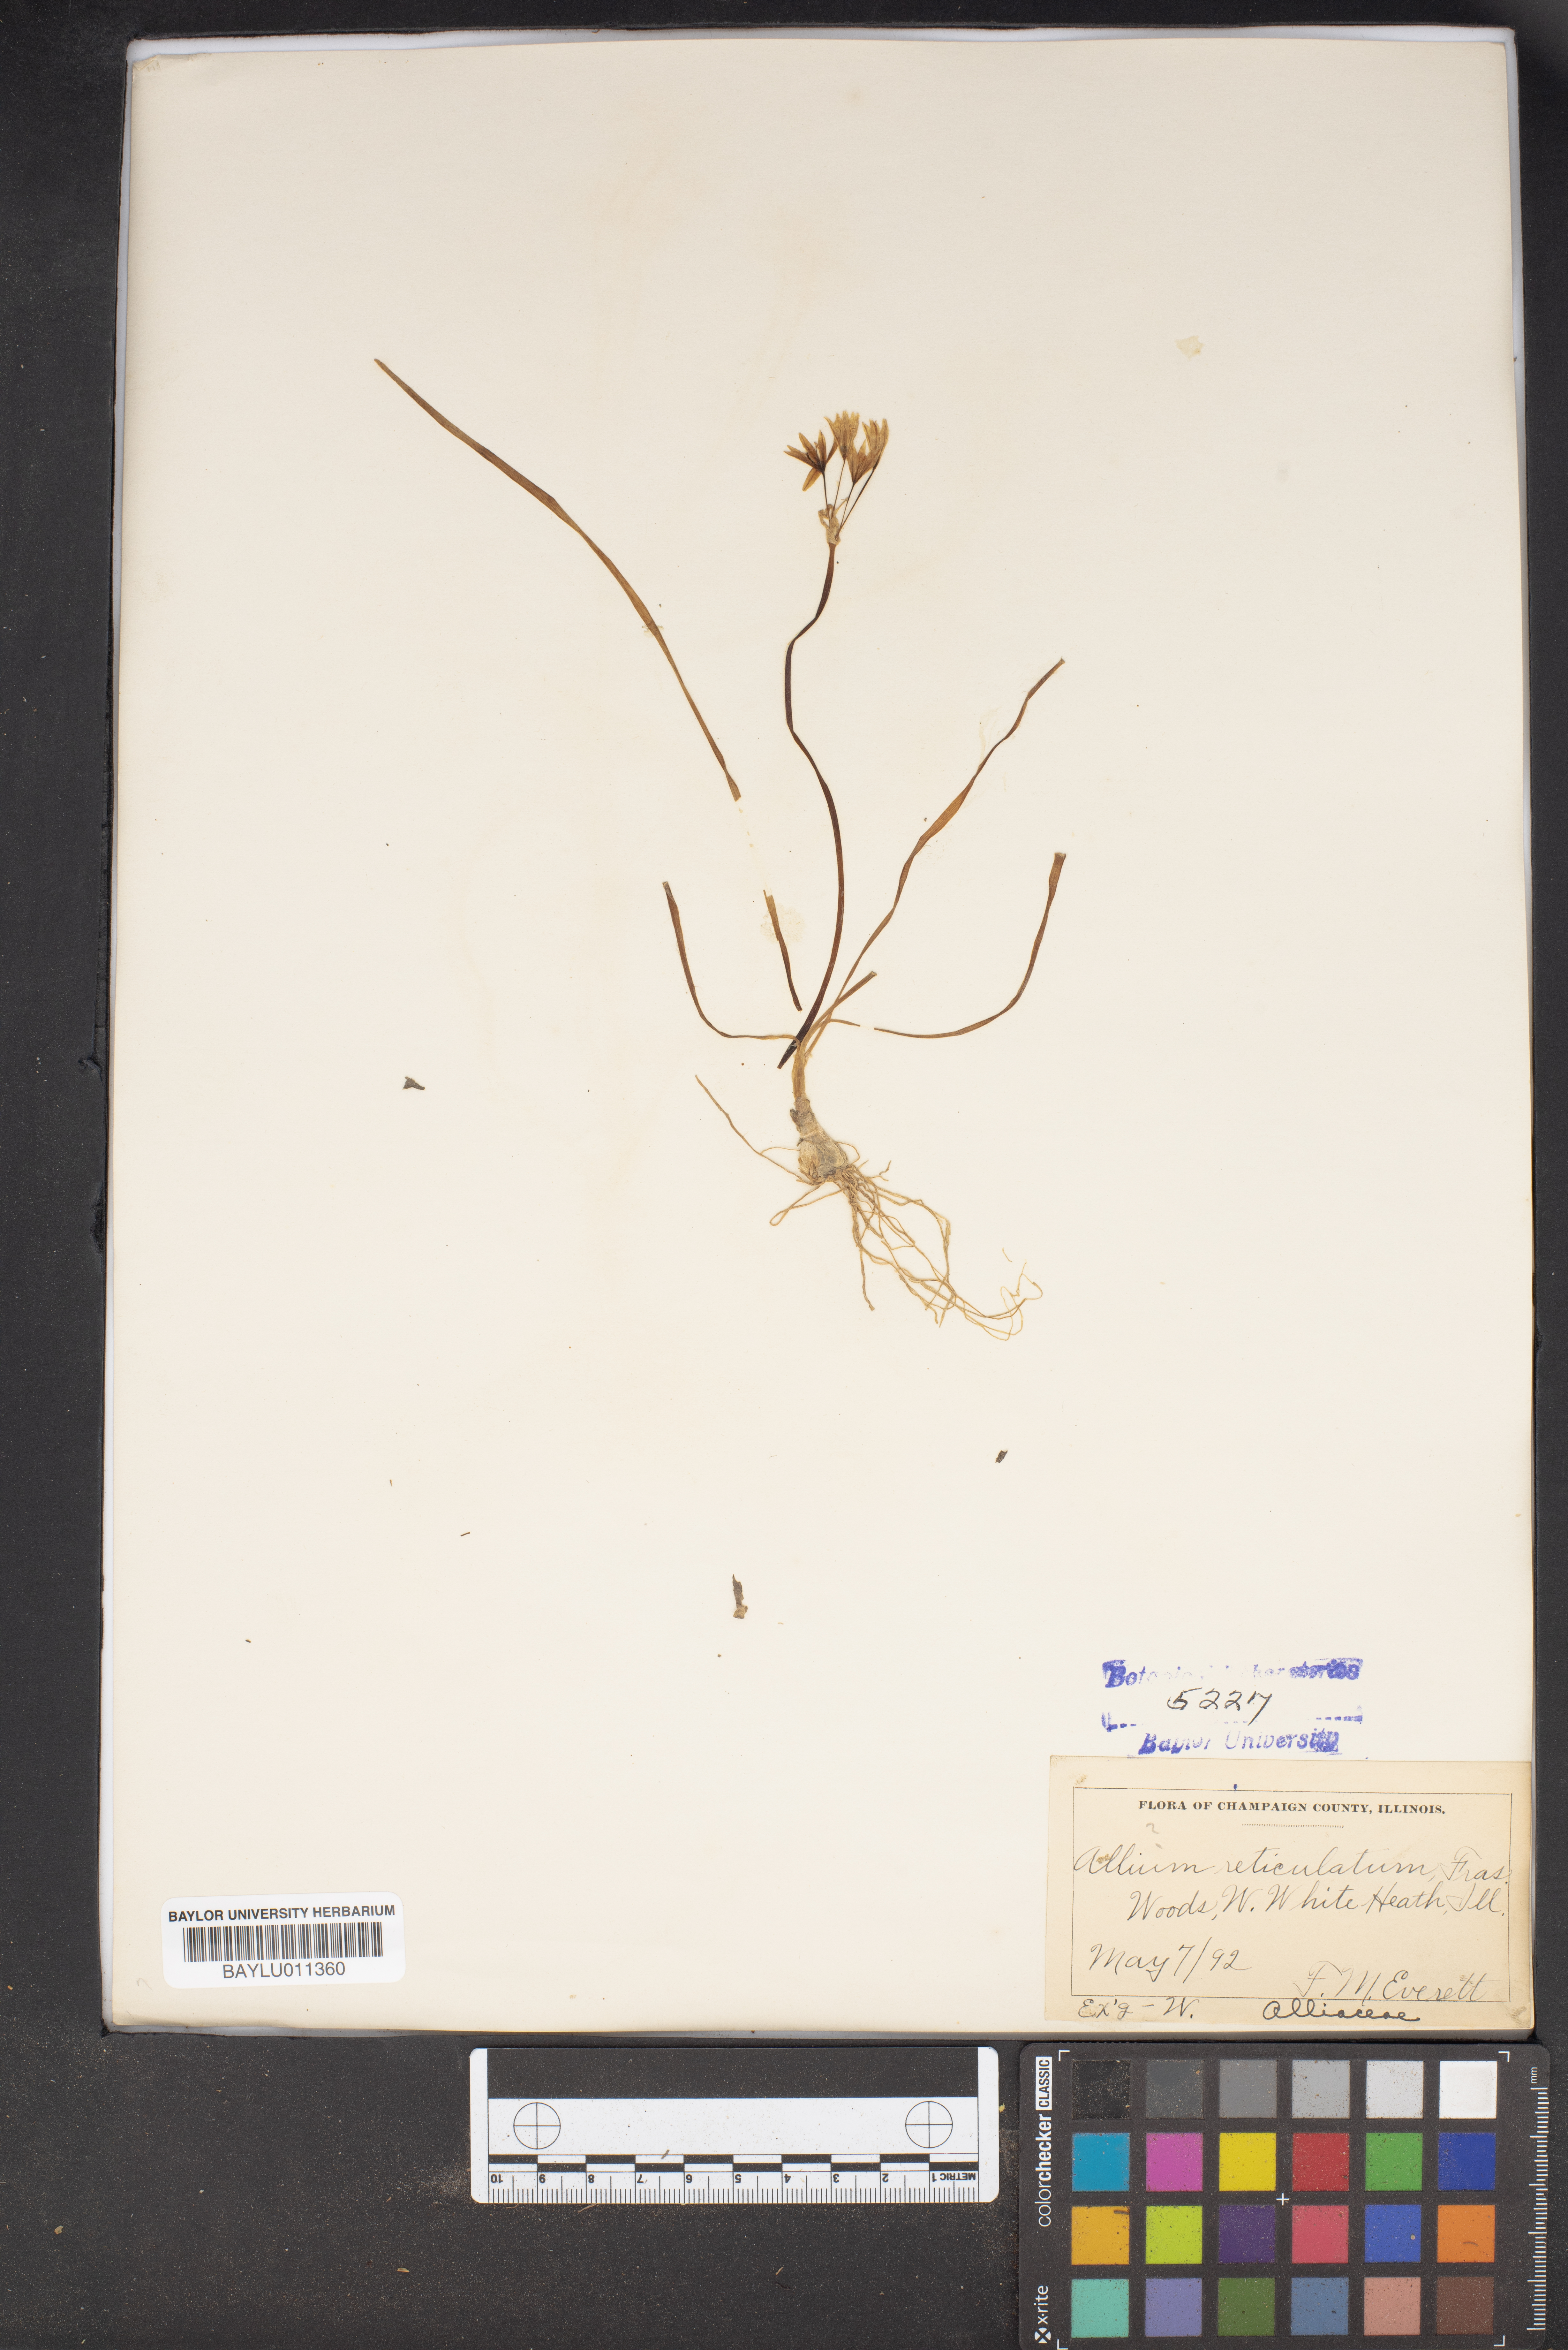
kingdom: Plantae
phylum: Tracheophyta
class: Liliopsida
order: Asparagales
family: Amaryllidaceae
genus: Allium
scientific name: Allium textile
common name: Prairie onion
